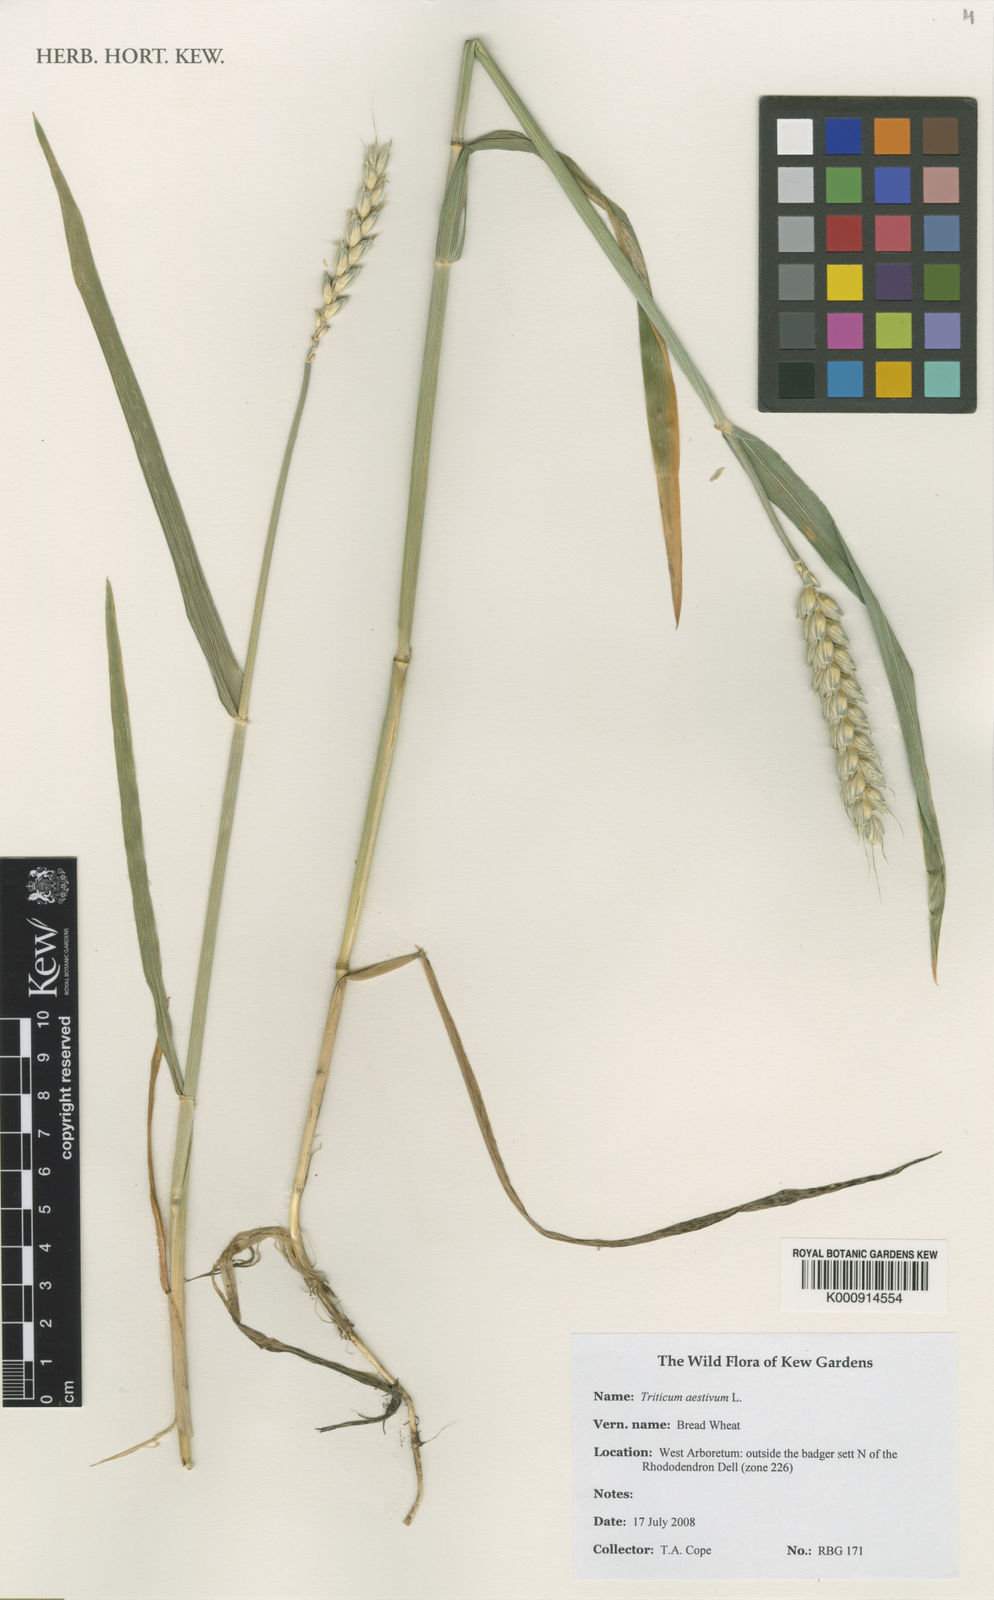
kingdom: Plantae
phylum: Tracheophyta
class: Liliopsida
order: Poales
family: Poaceae
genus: Triticum
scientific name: Triticum aestivum
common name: Common wheat
